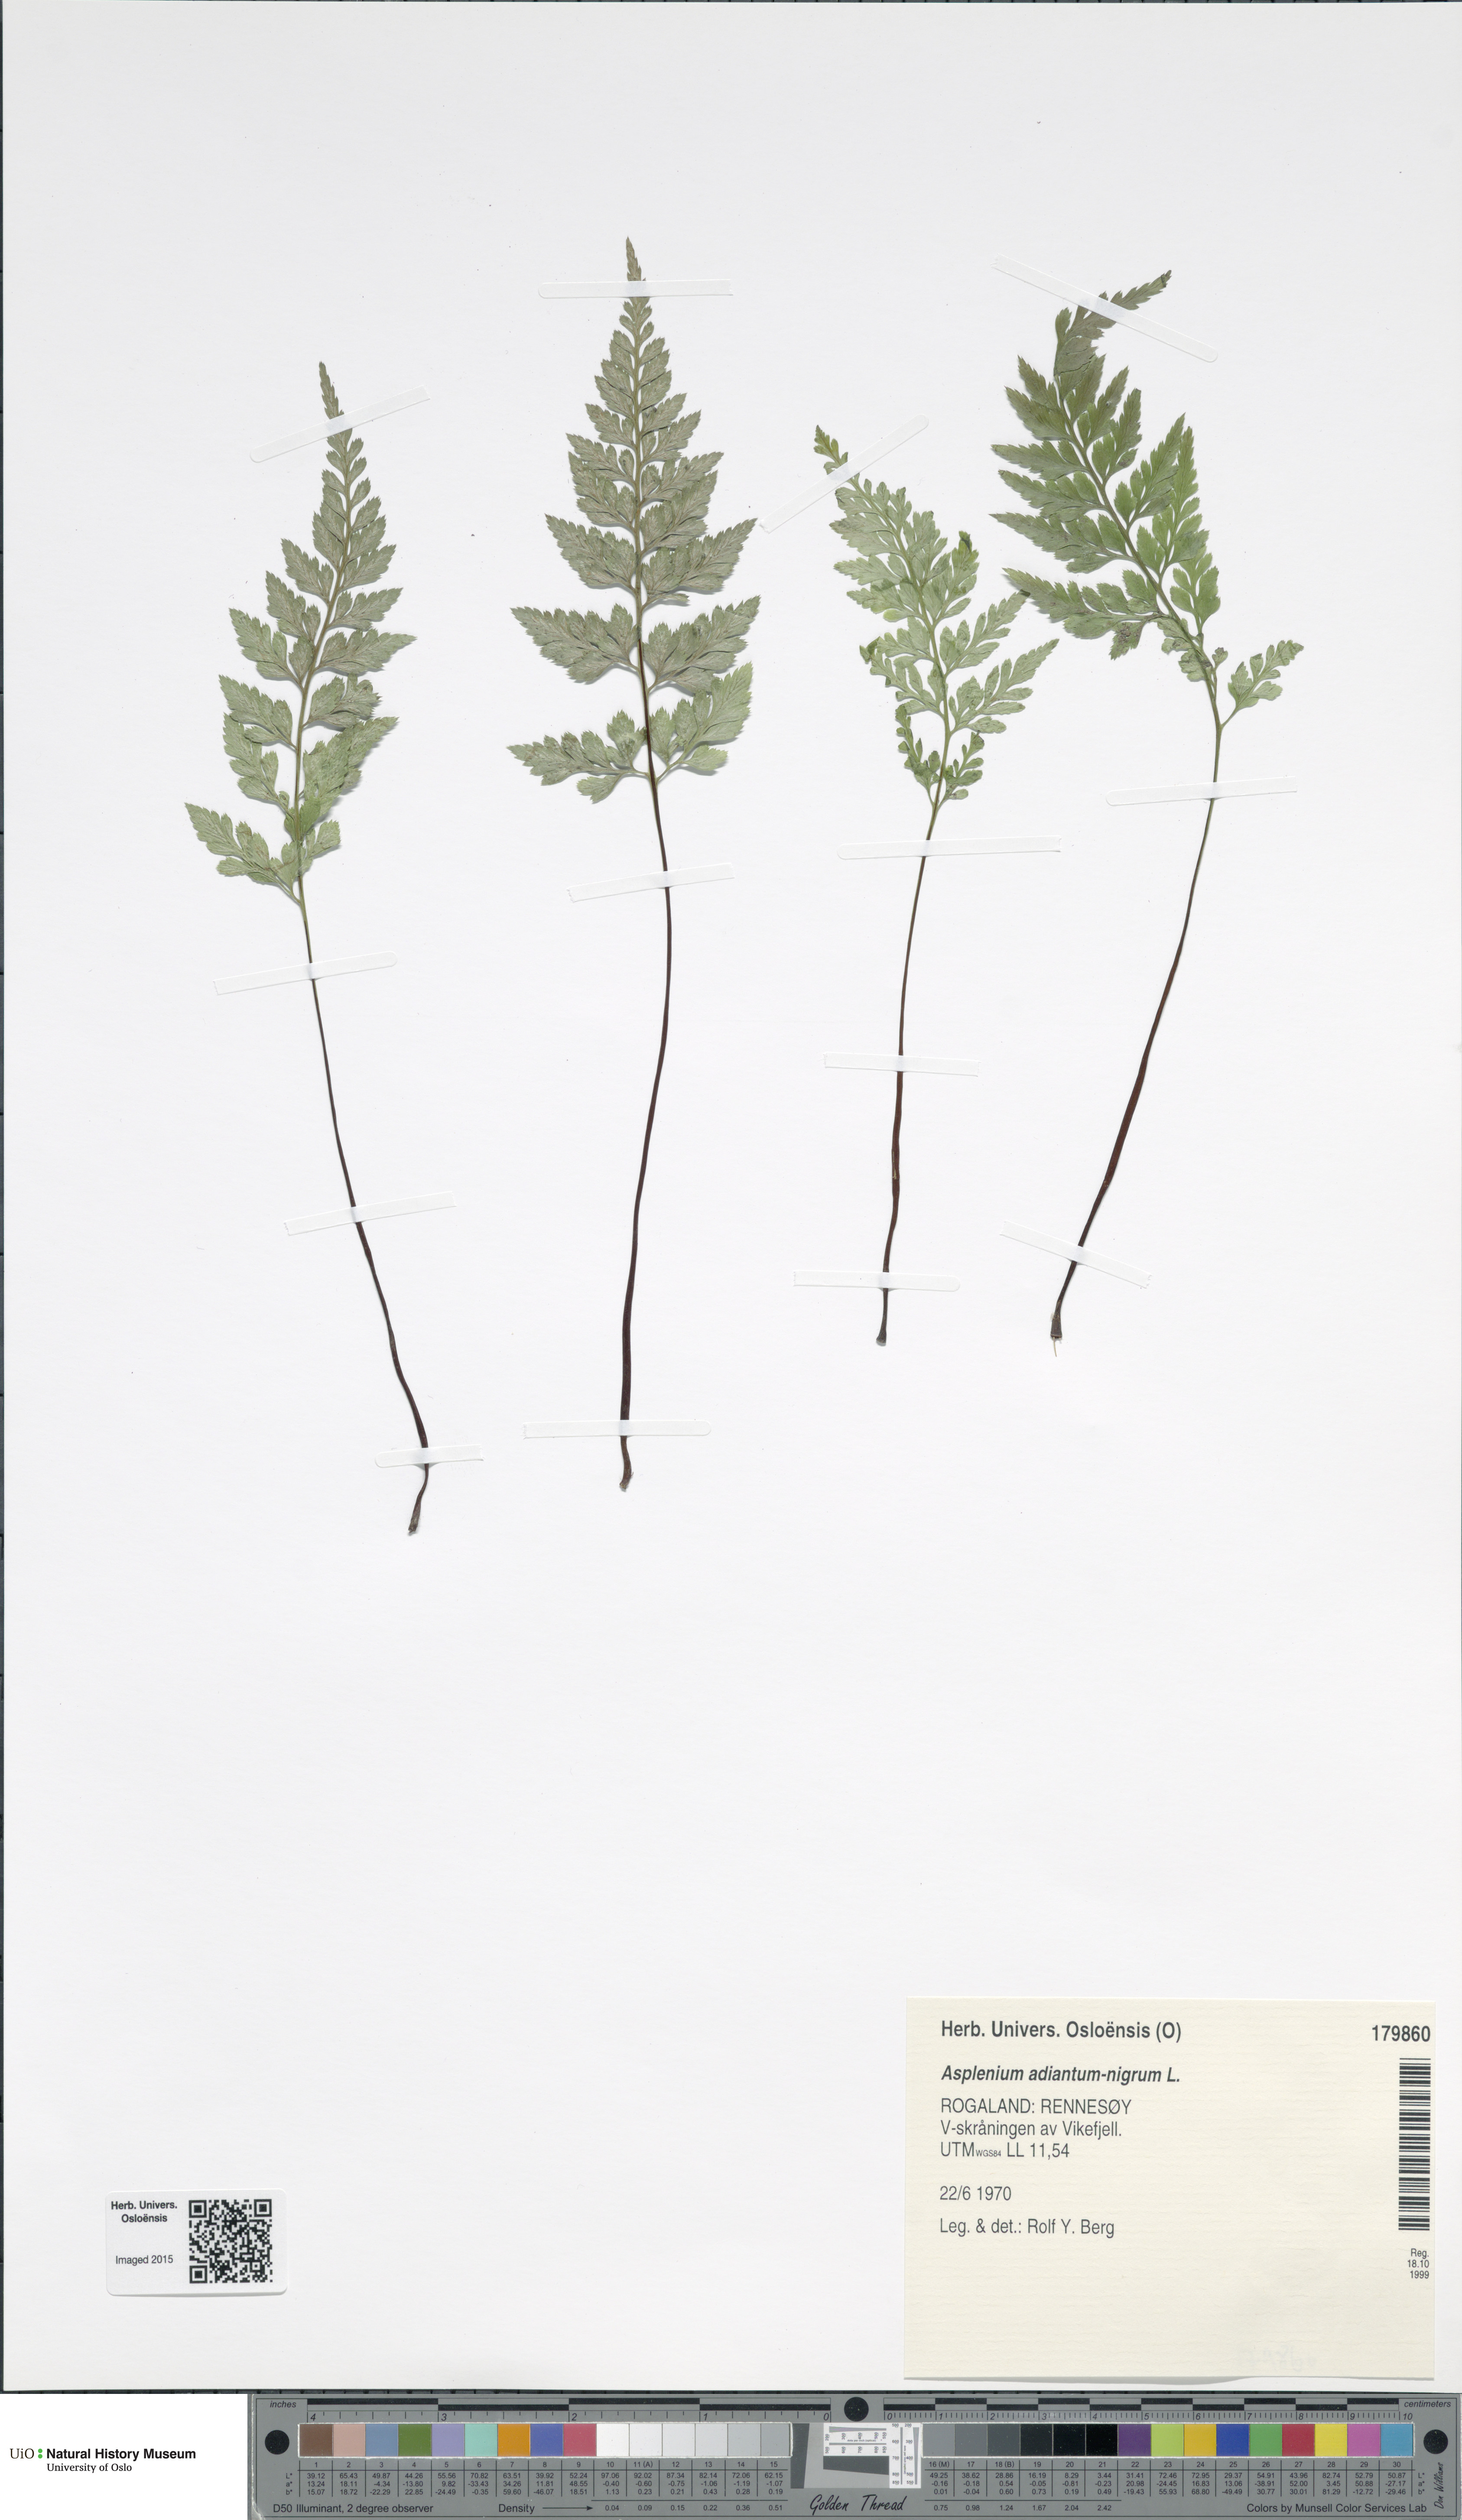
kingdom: Plantae
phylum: Tracheophyta
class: Polypodiopsida
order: Polypodiales
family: Aspleniaceae
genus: Asplenium
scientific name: Asplenium adiantum-nigrum
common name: Black spleenwort
